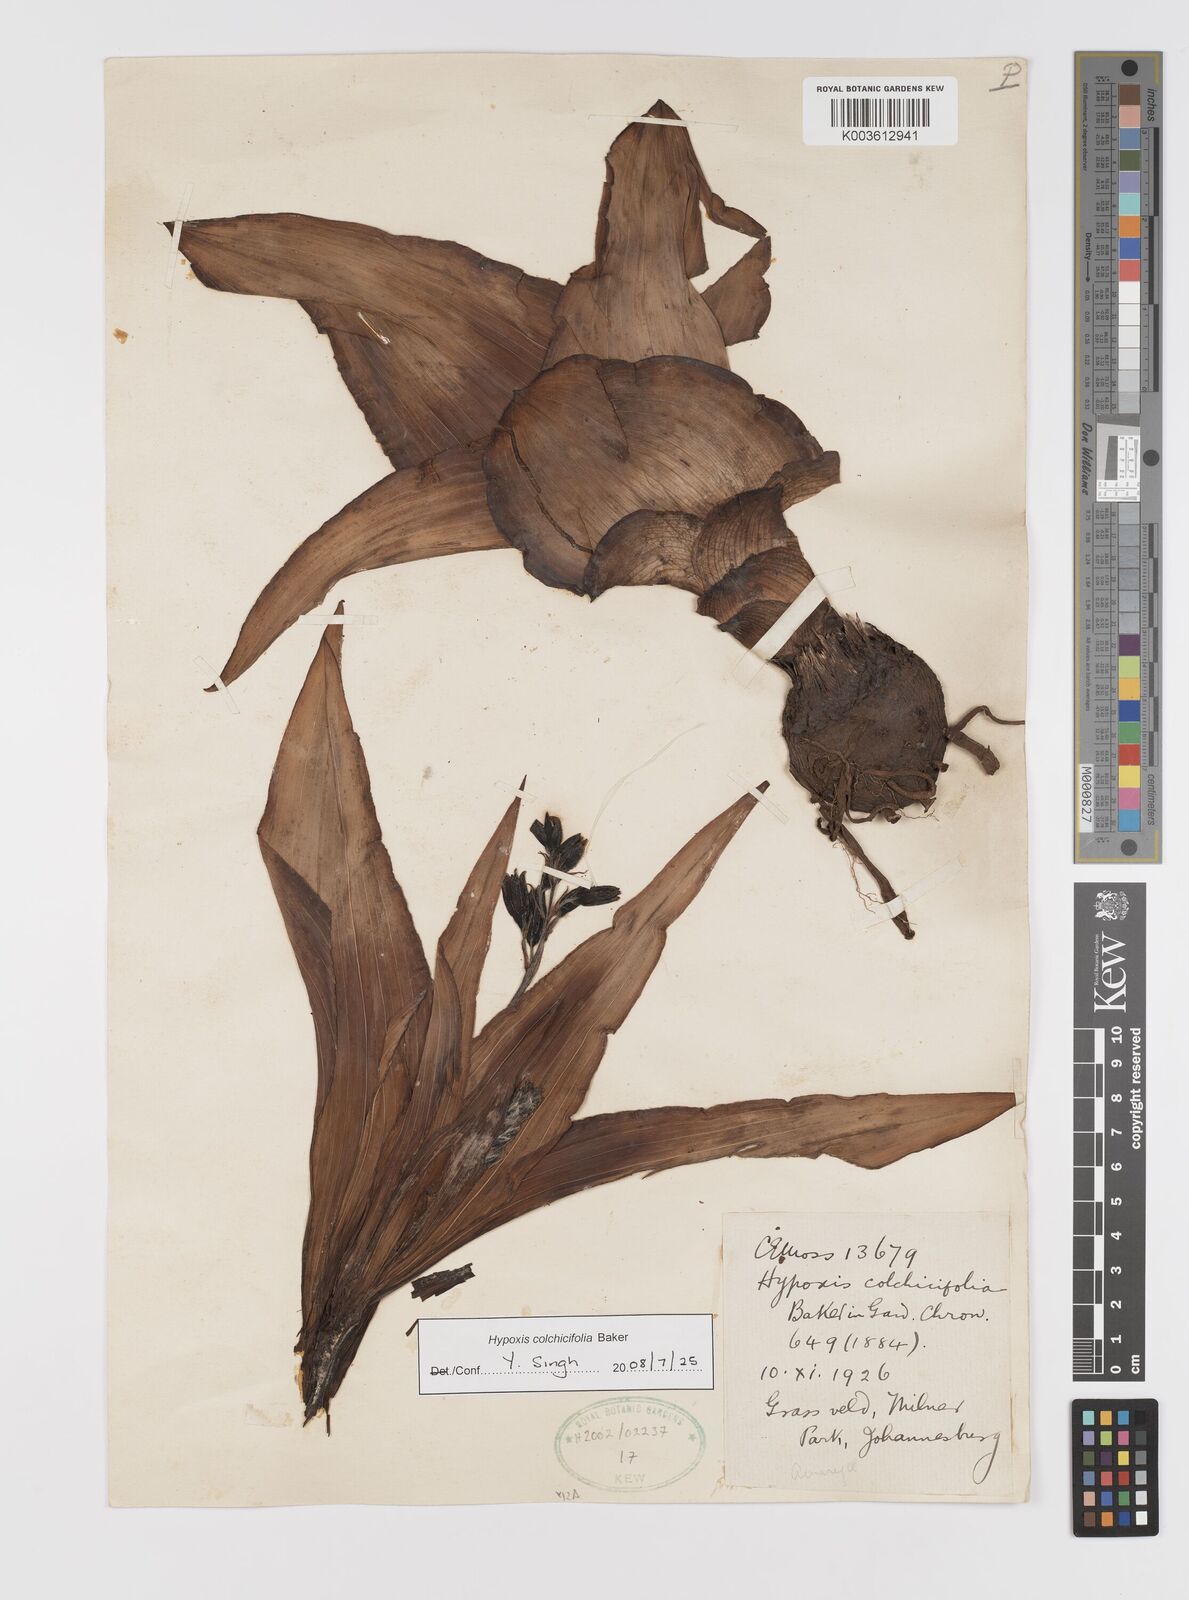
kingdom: Plantae
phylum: Tracheophyta
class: Liliopsida
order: Asparagales
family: Hypoxidaceae
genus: Hypoxis
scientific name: Hypoxis colchicifolia
